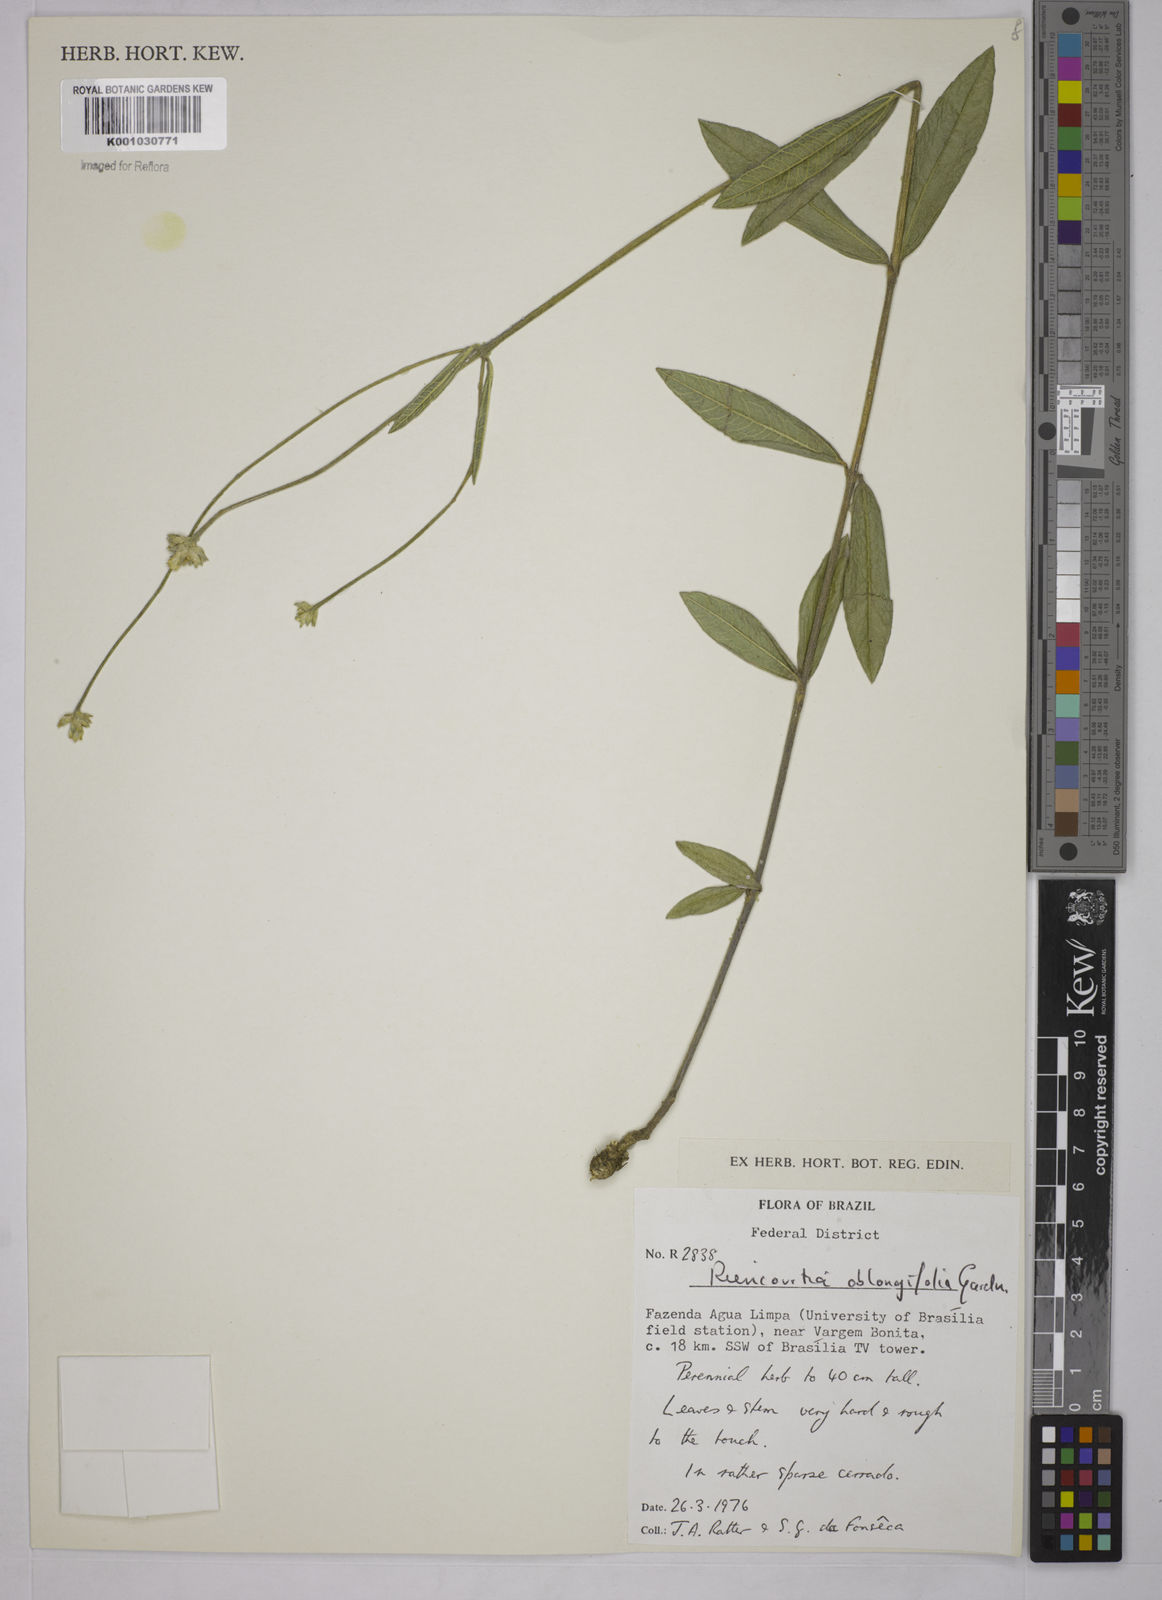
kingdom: Plantae
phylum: Tracheophyta
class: Magnoliopsida
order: Asterales
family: Asteraceae
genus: Riencourtia
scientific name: Riencourtia oblongifolia
